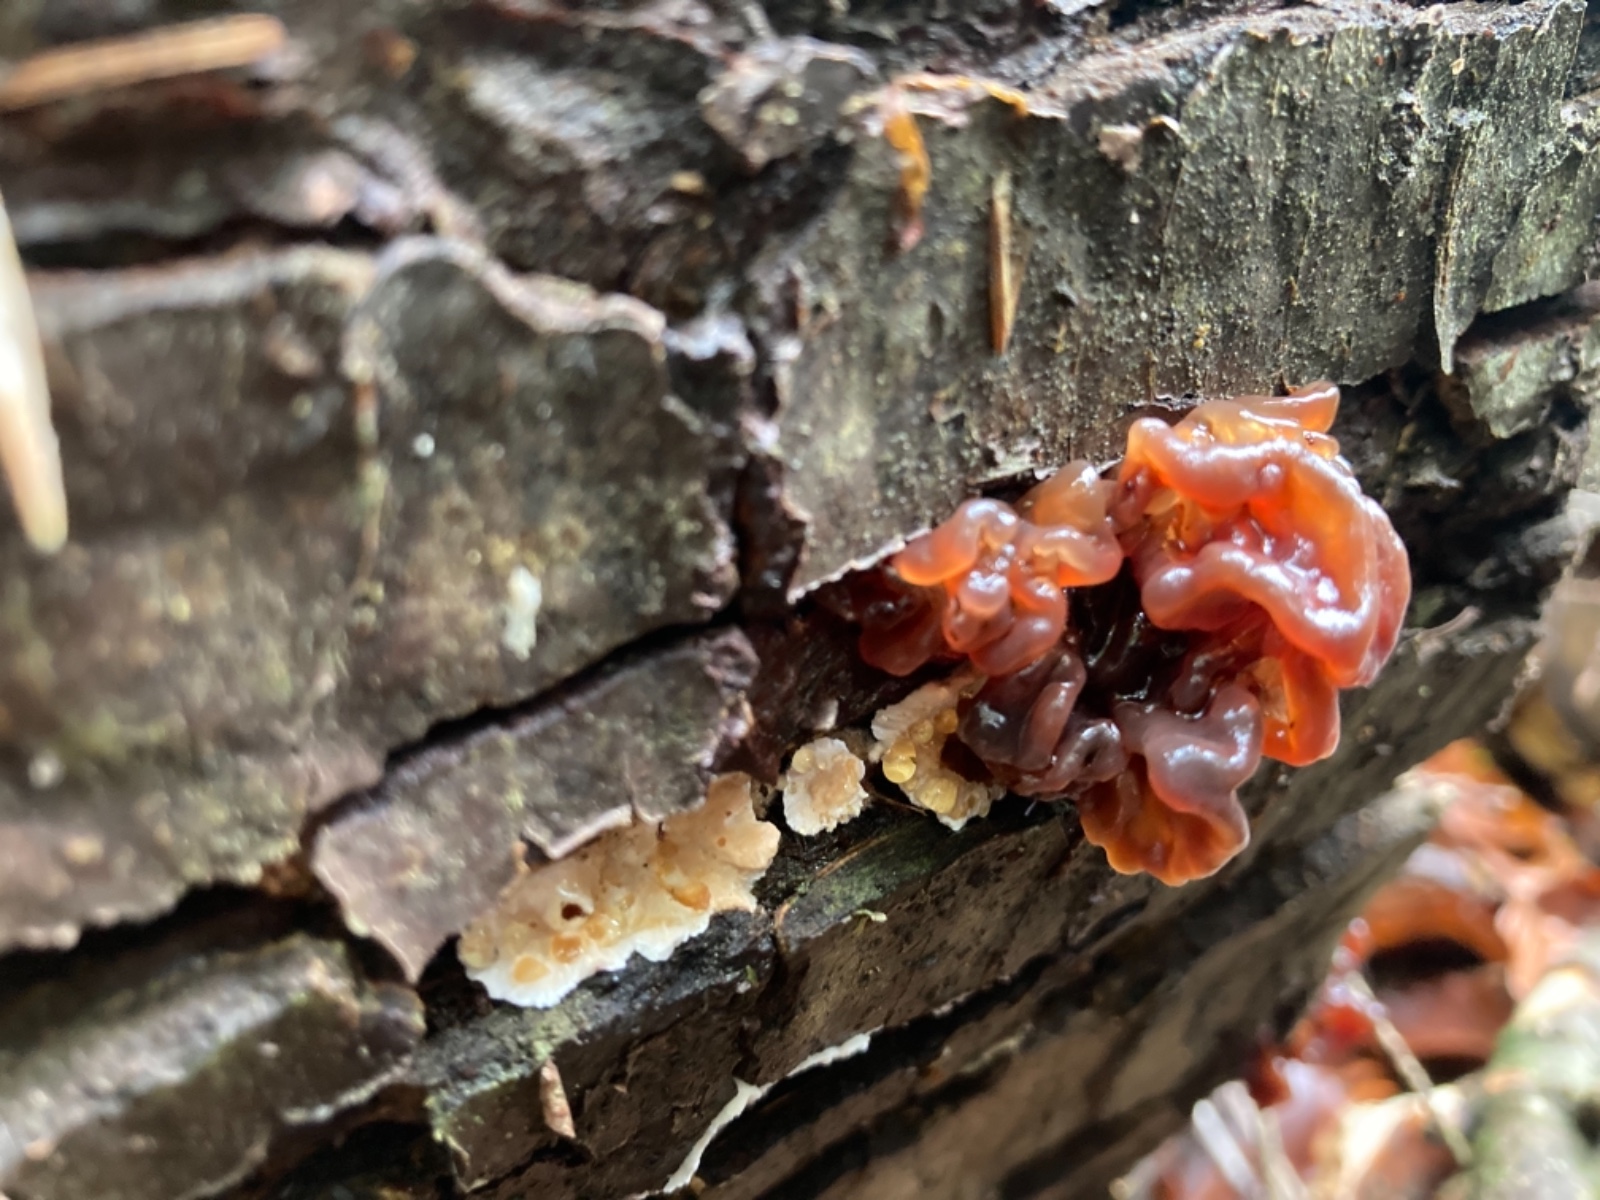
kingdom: Fungi
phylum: Basidiomycota
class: Tremellomycetes
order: Tremellales
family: Tremellaceae
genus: Phaeotremella
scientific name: Phaeotremella foliacea
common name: brun bævresvamp
